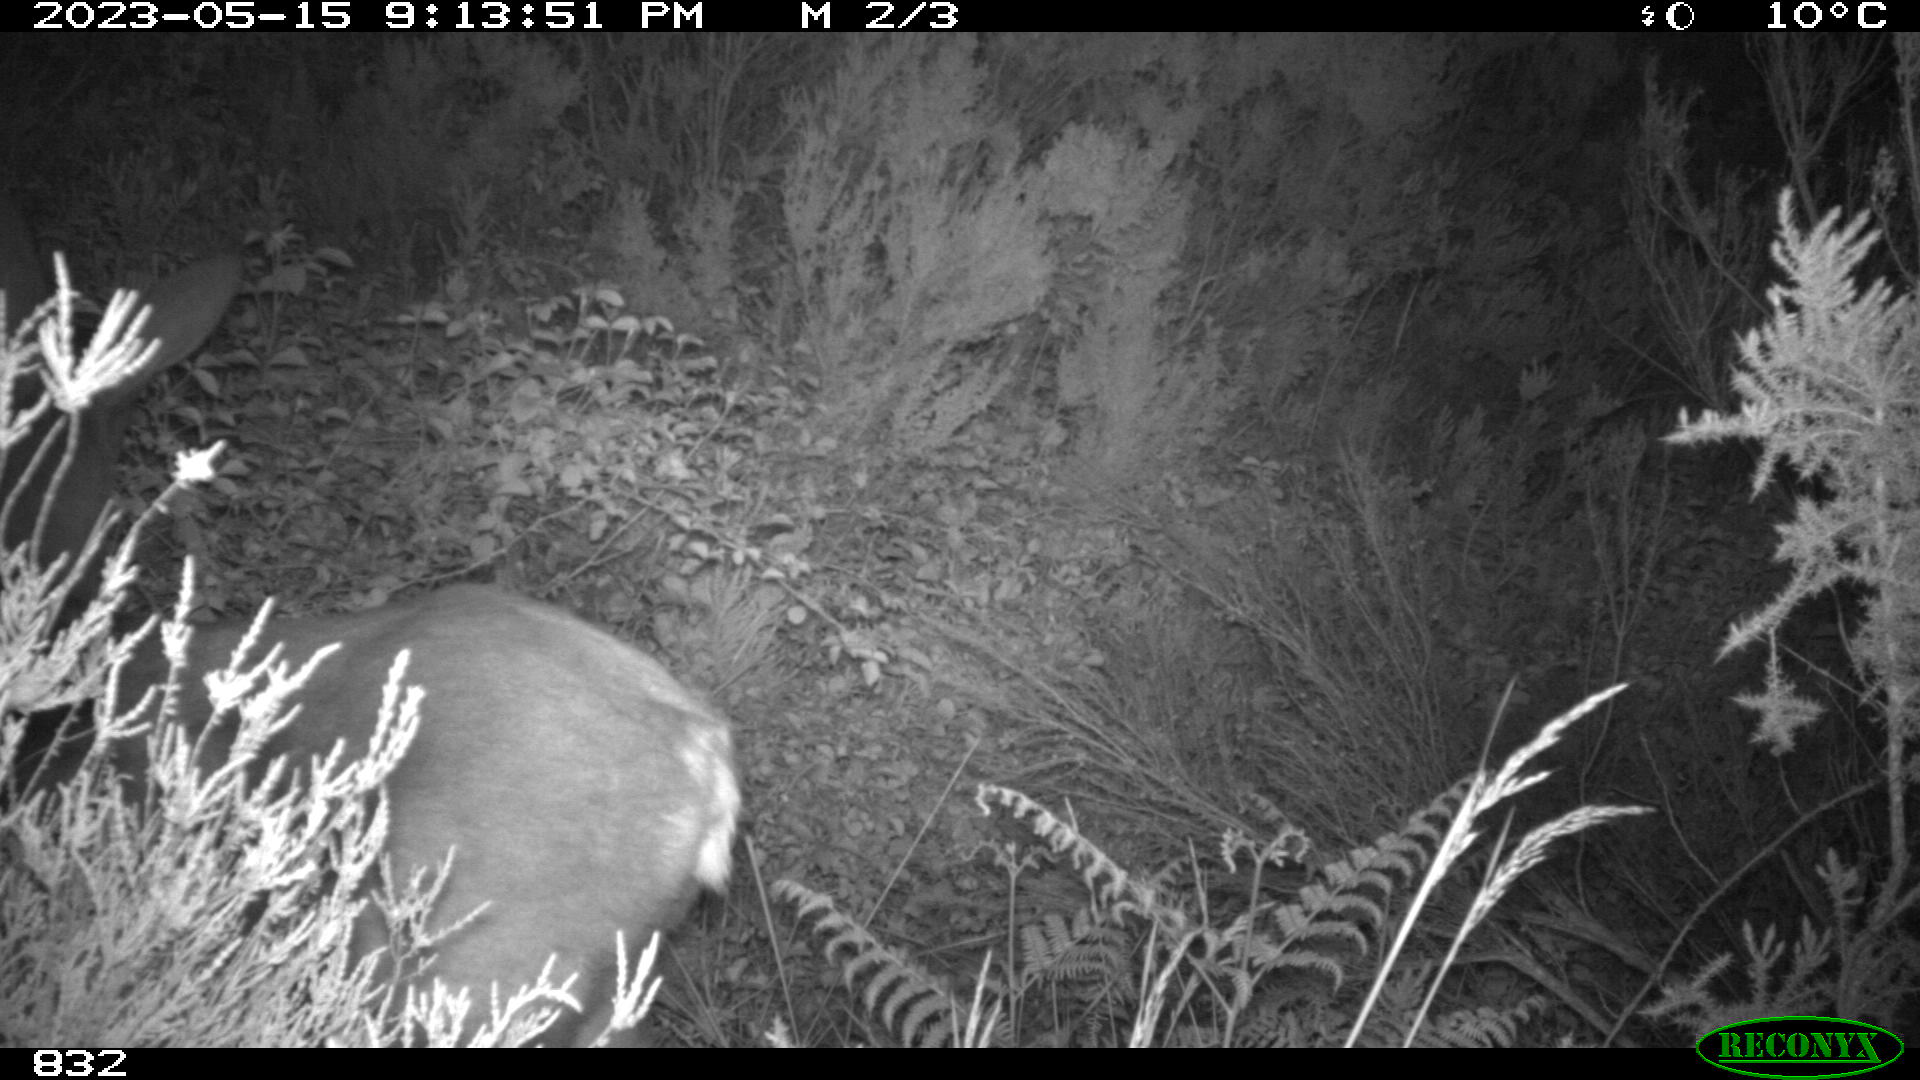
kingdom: Animalia
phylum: Chordata
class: Mammalia
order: Artiodactyla
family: Cervidae
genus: Capreolus
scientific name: Capreolus capreolus
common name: Western roe deer
